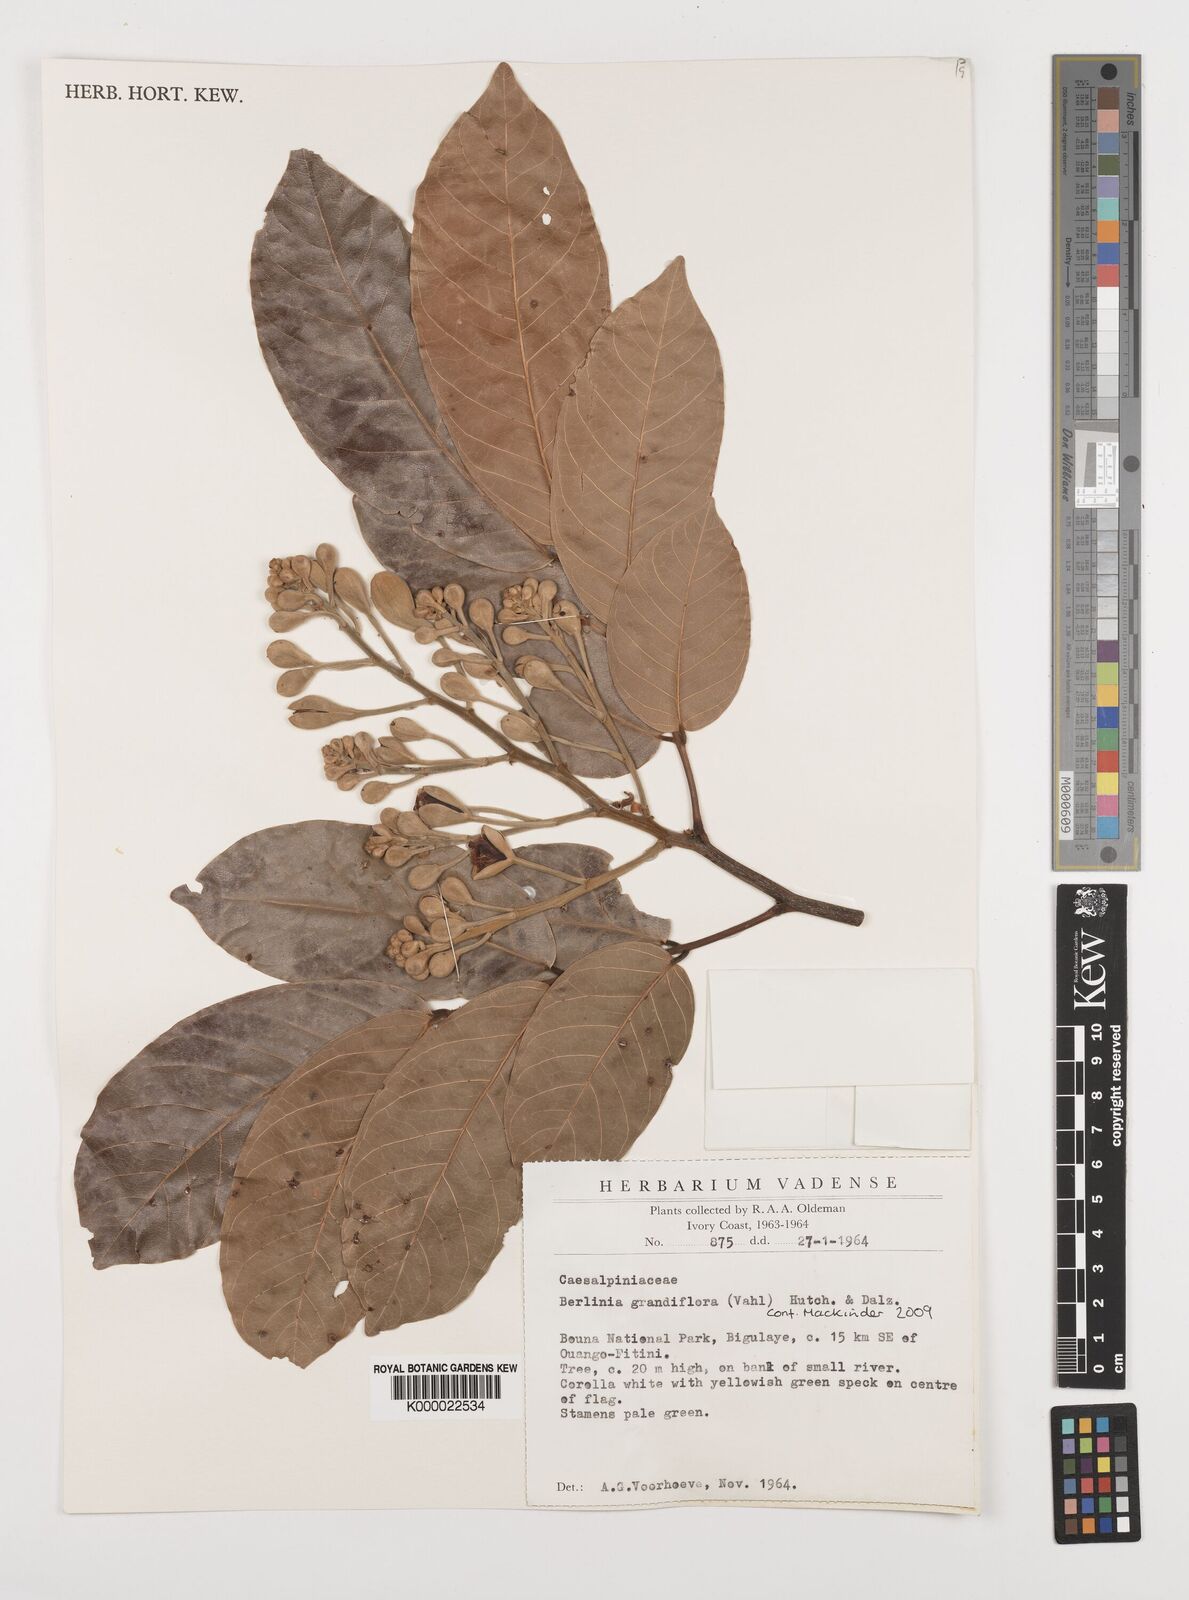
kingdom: Plantae
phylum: Tracheophyta
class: Magnoliopsida
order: Fabales
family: Fabaceae
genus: Berlinia
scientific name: Berlinia grandiflora
